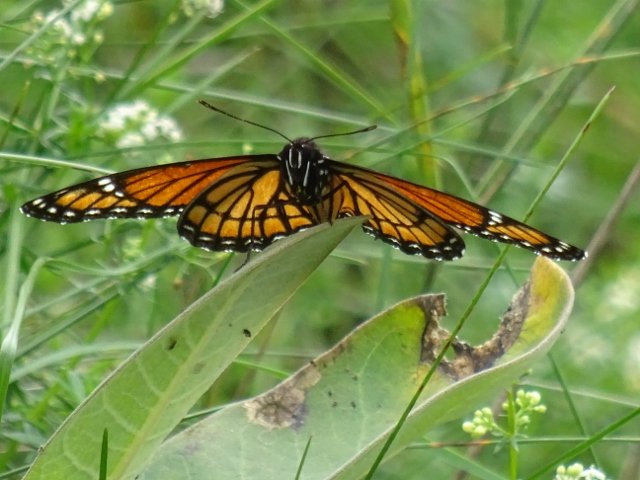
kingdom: Animalia
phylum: Arthropoda
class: Insecta
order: Lepidoptera
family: Nymphalidae
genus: Limenitis
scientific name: Limenitis archippus
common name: Viceroy
